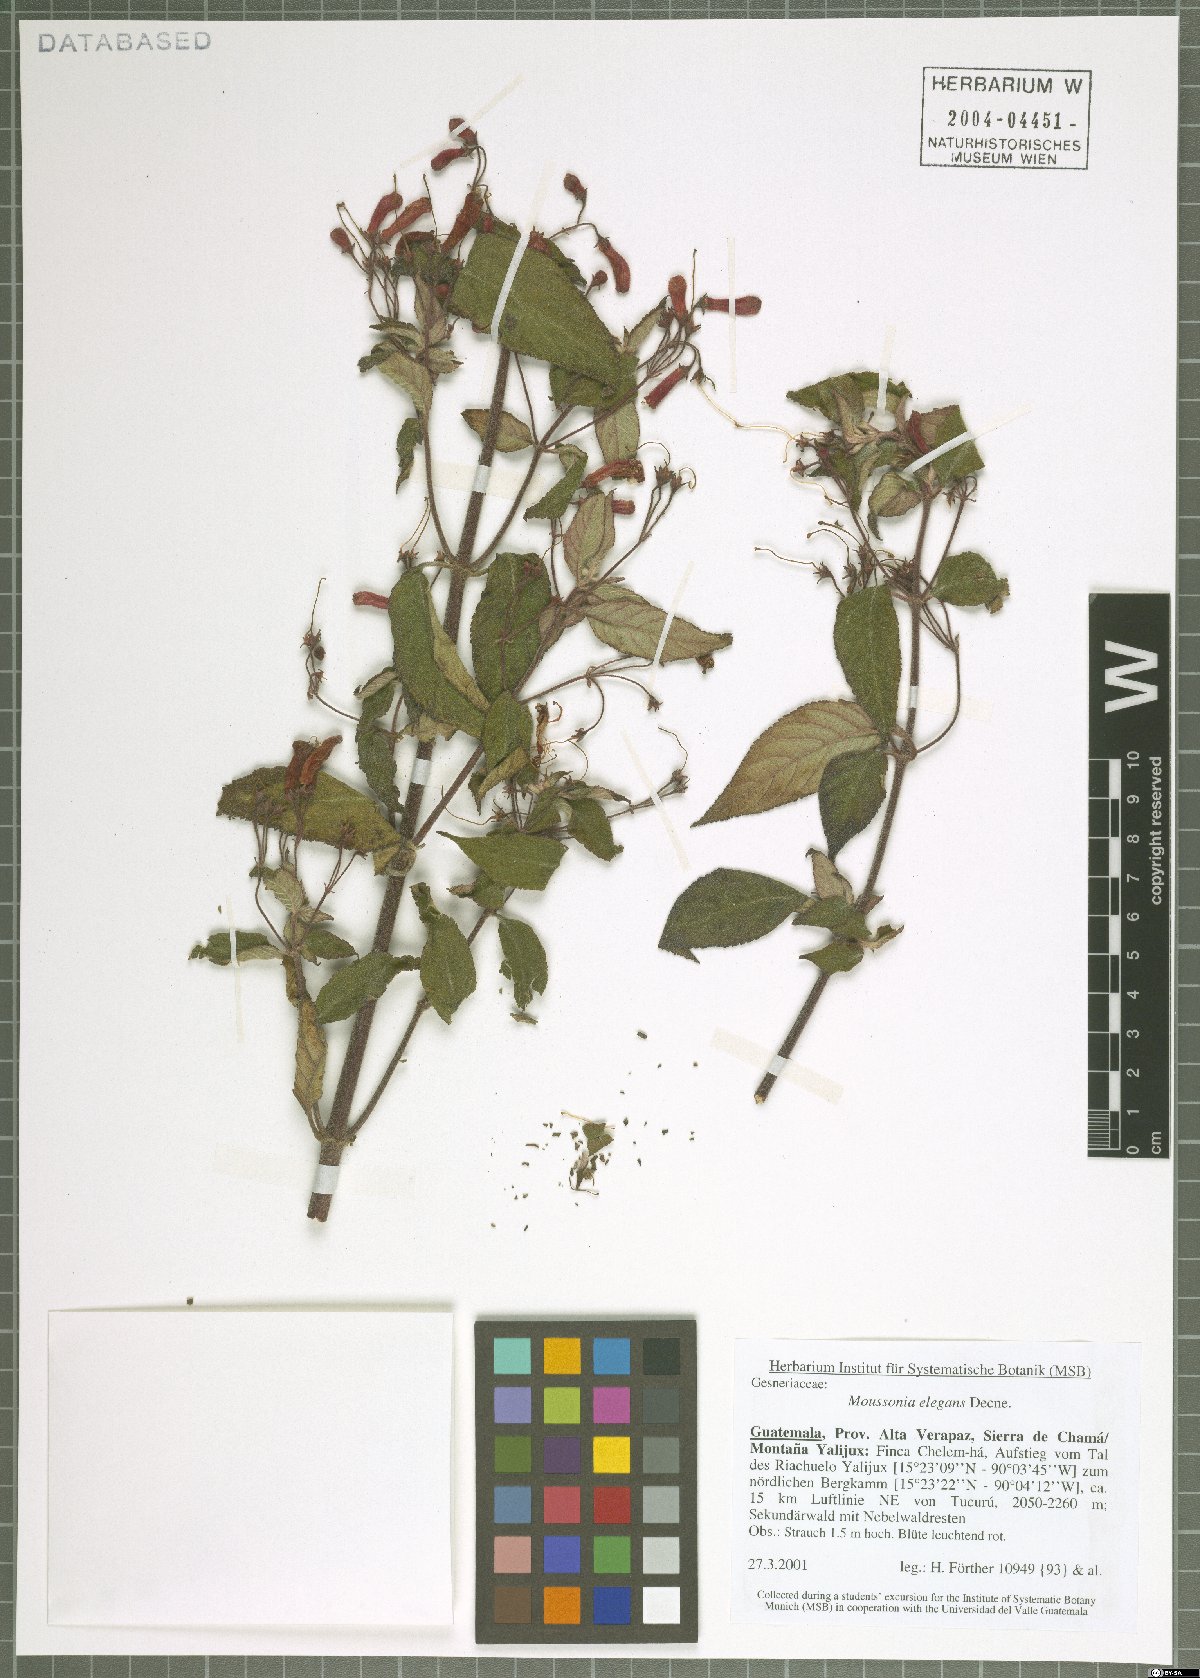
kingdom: Plantae
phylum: Tracheophyta
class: Magnoliopsida
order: Lamiales
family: Gesneriaceae
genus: Moussonia
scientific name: Moussonia elegans
